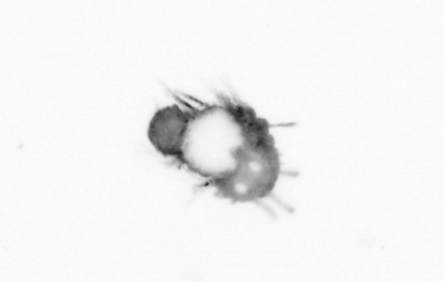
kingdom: Animalia
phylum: Annelida
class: Polychaeta
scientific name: Polychaeta
